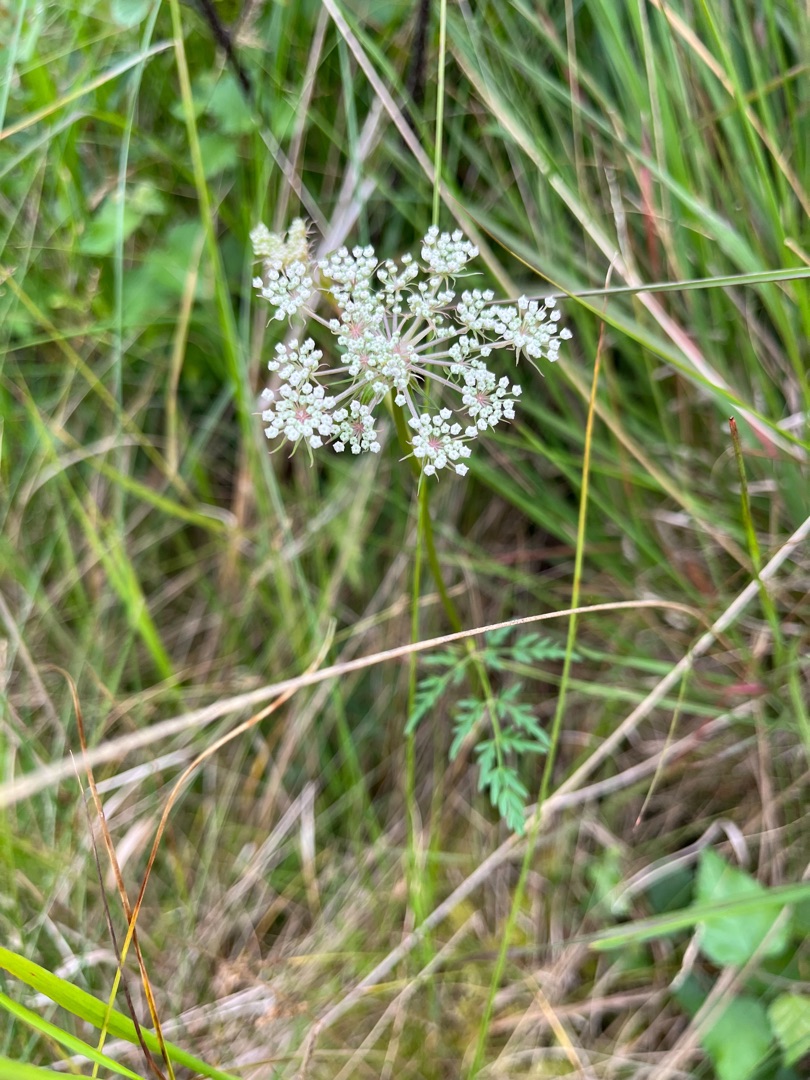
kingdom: Plantae
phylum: Tracheophyta
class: Magnoliopsida
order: Apiales
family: Apiaceae
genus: Thysselinum
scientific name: Thysselinum palustre
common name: Kær-svovlrod
